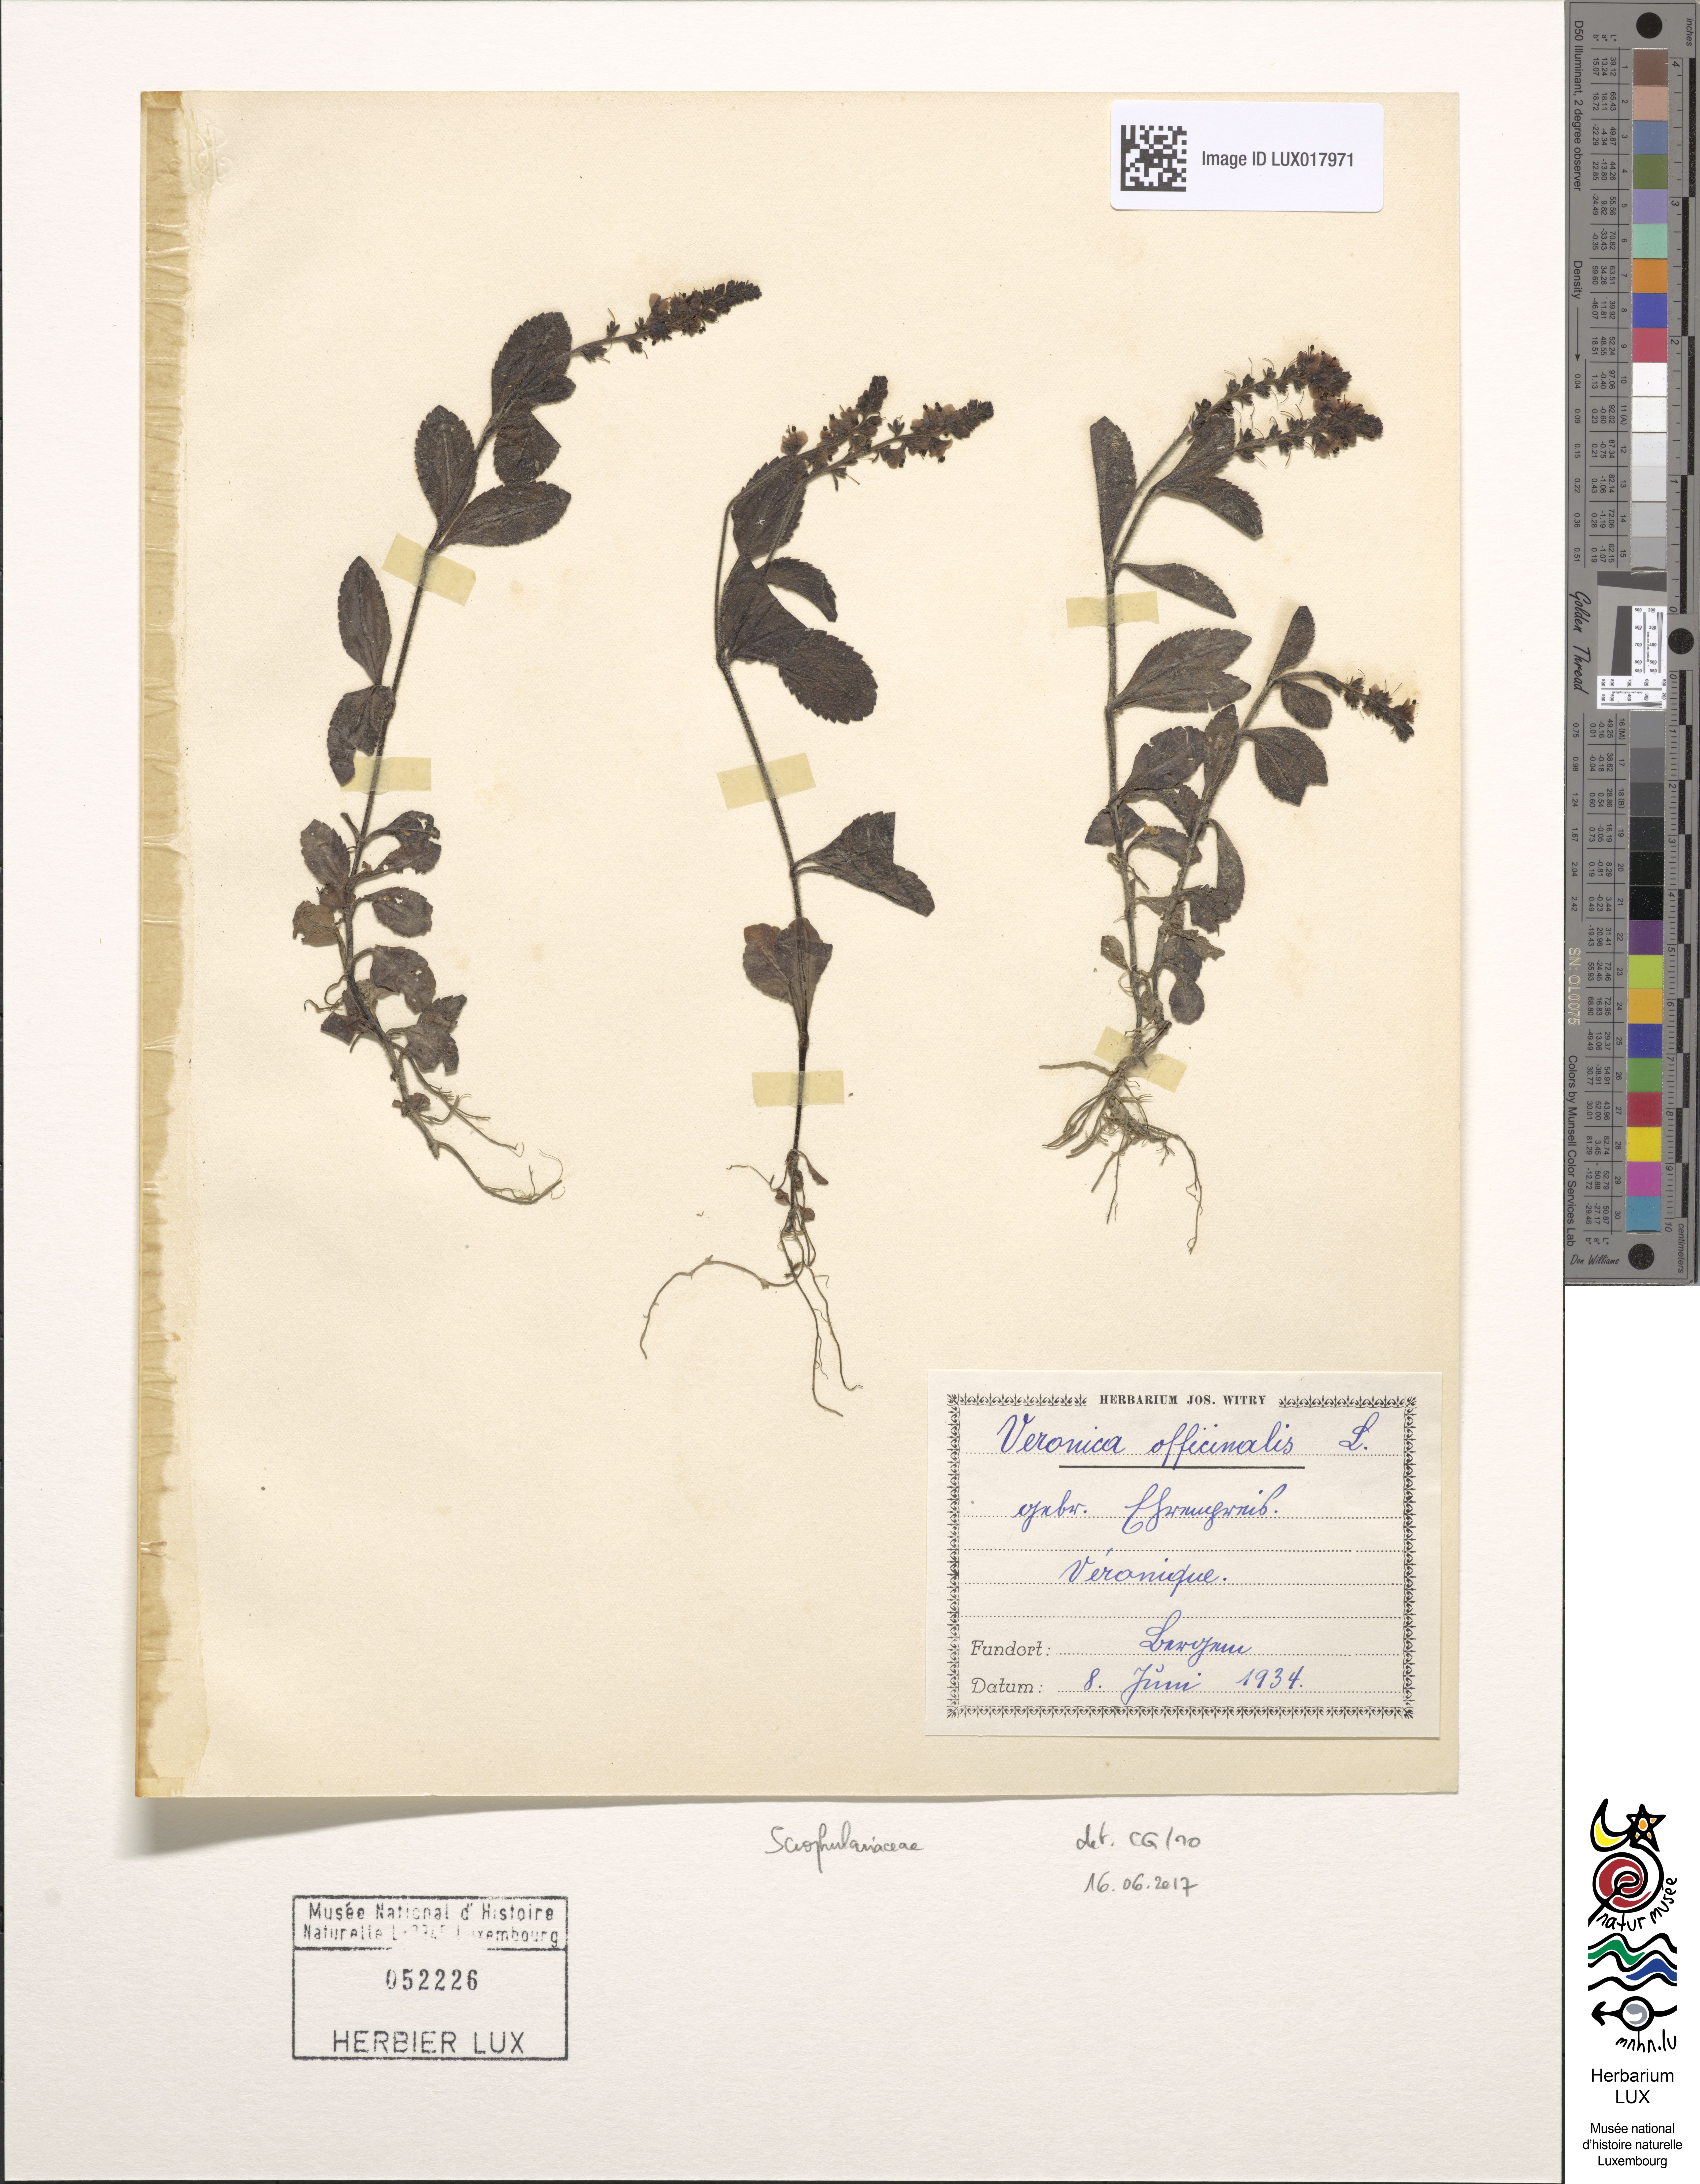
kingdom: Plantae
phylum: Tracheophyta
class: Magnoliopsida
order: Lamiales
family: Plantaginaceae
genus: Veronica
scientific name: Veronica officinalis
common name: Common speedwell
